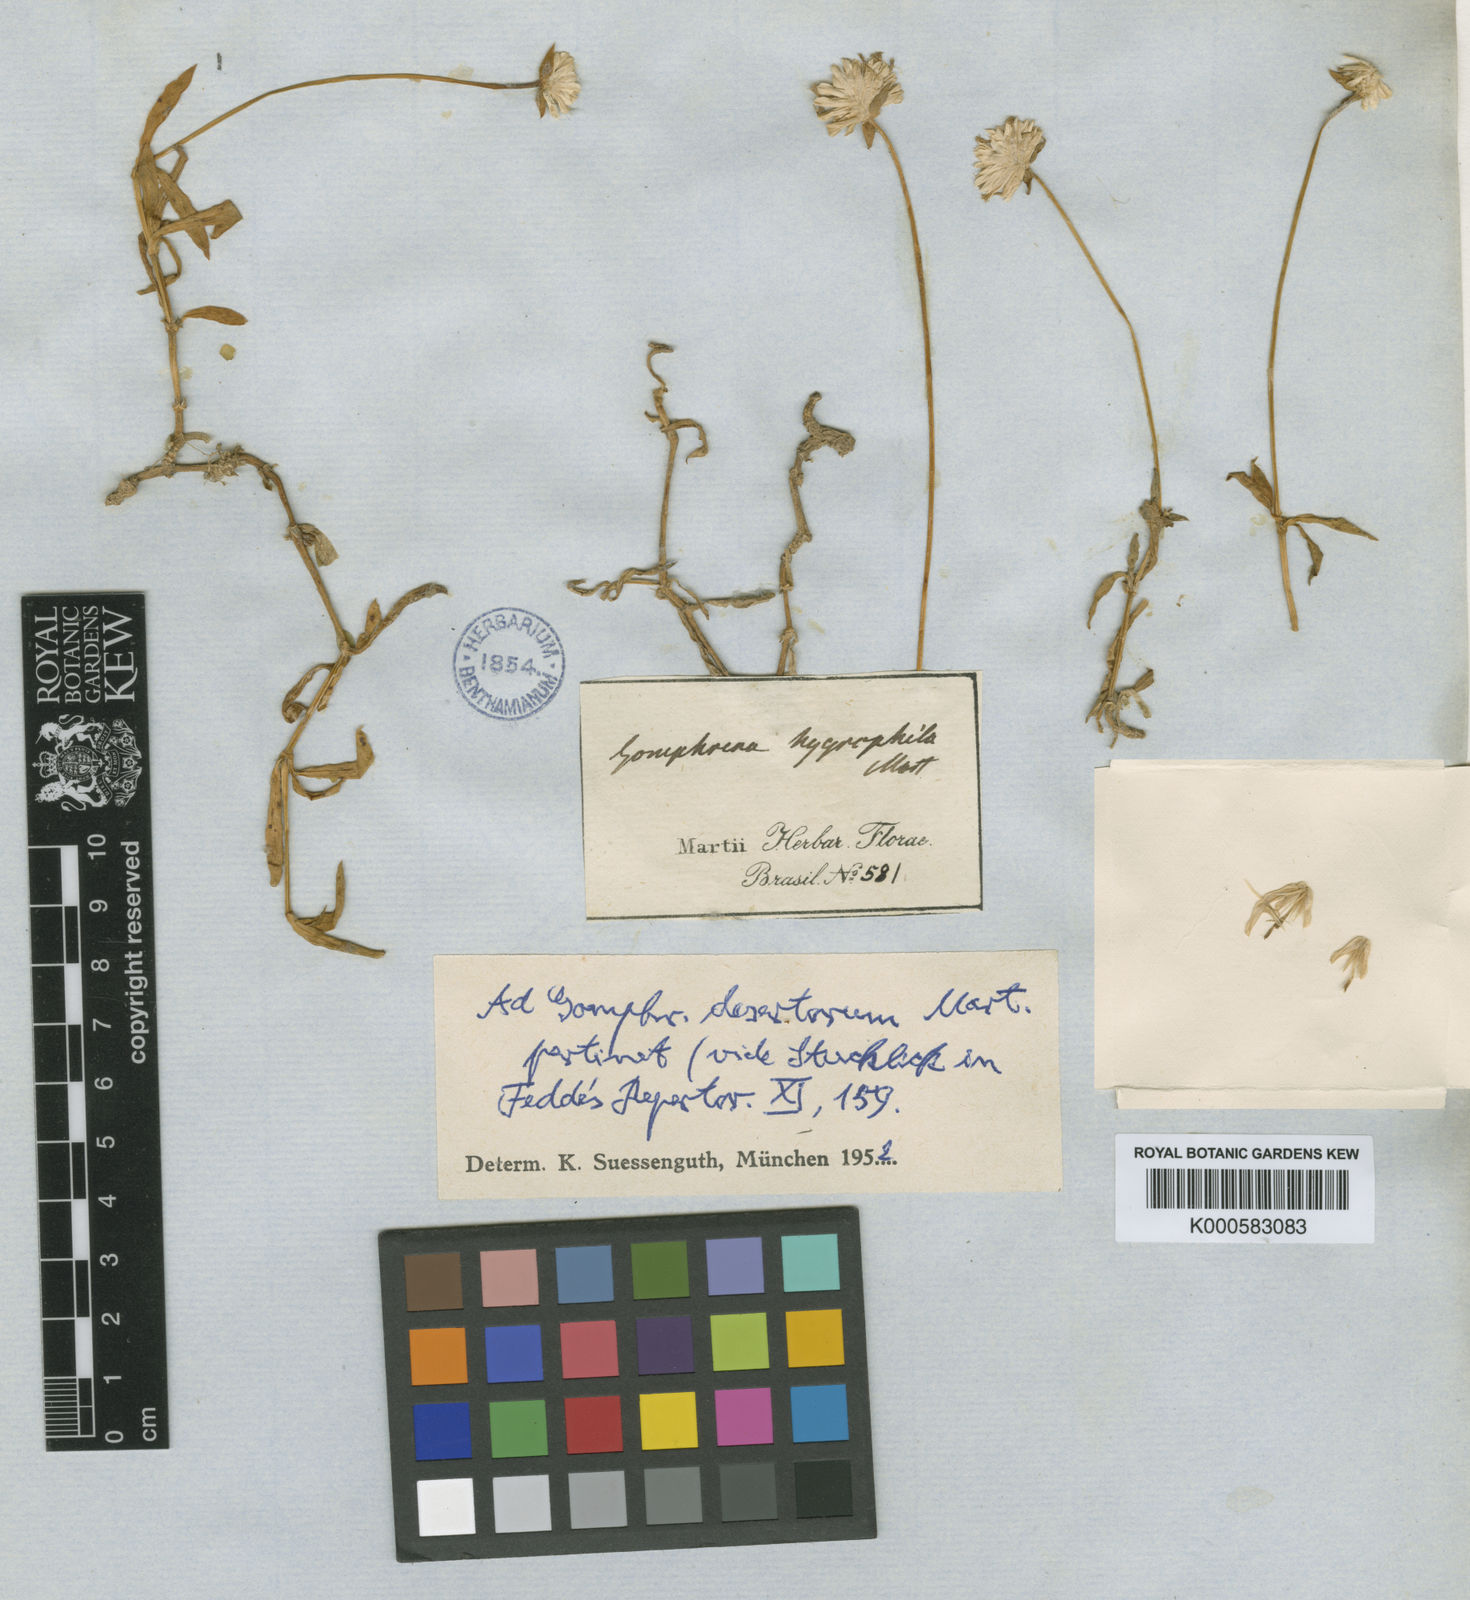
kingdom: Plantae
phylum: Tracheophyta
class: Magnoliopsida
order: Caryophyllales
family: Amaranthaceae
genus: Gomphrena
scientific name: Gomphrena
